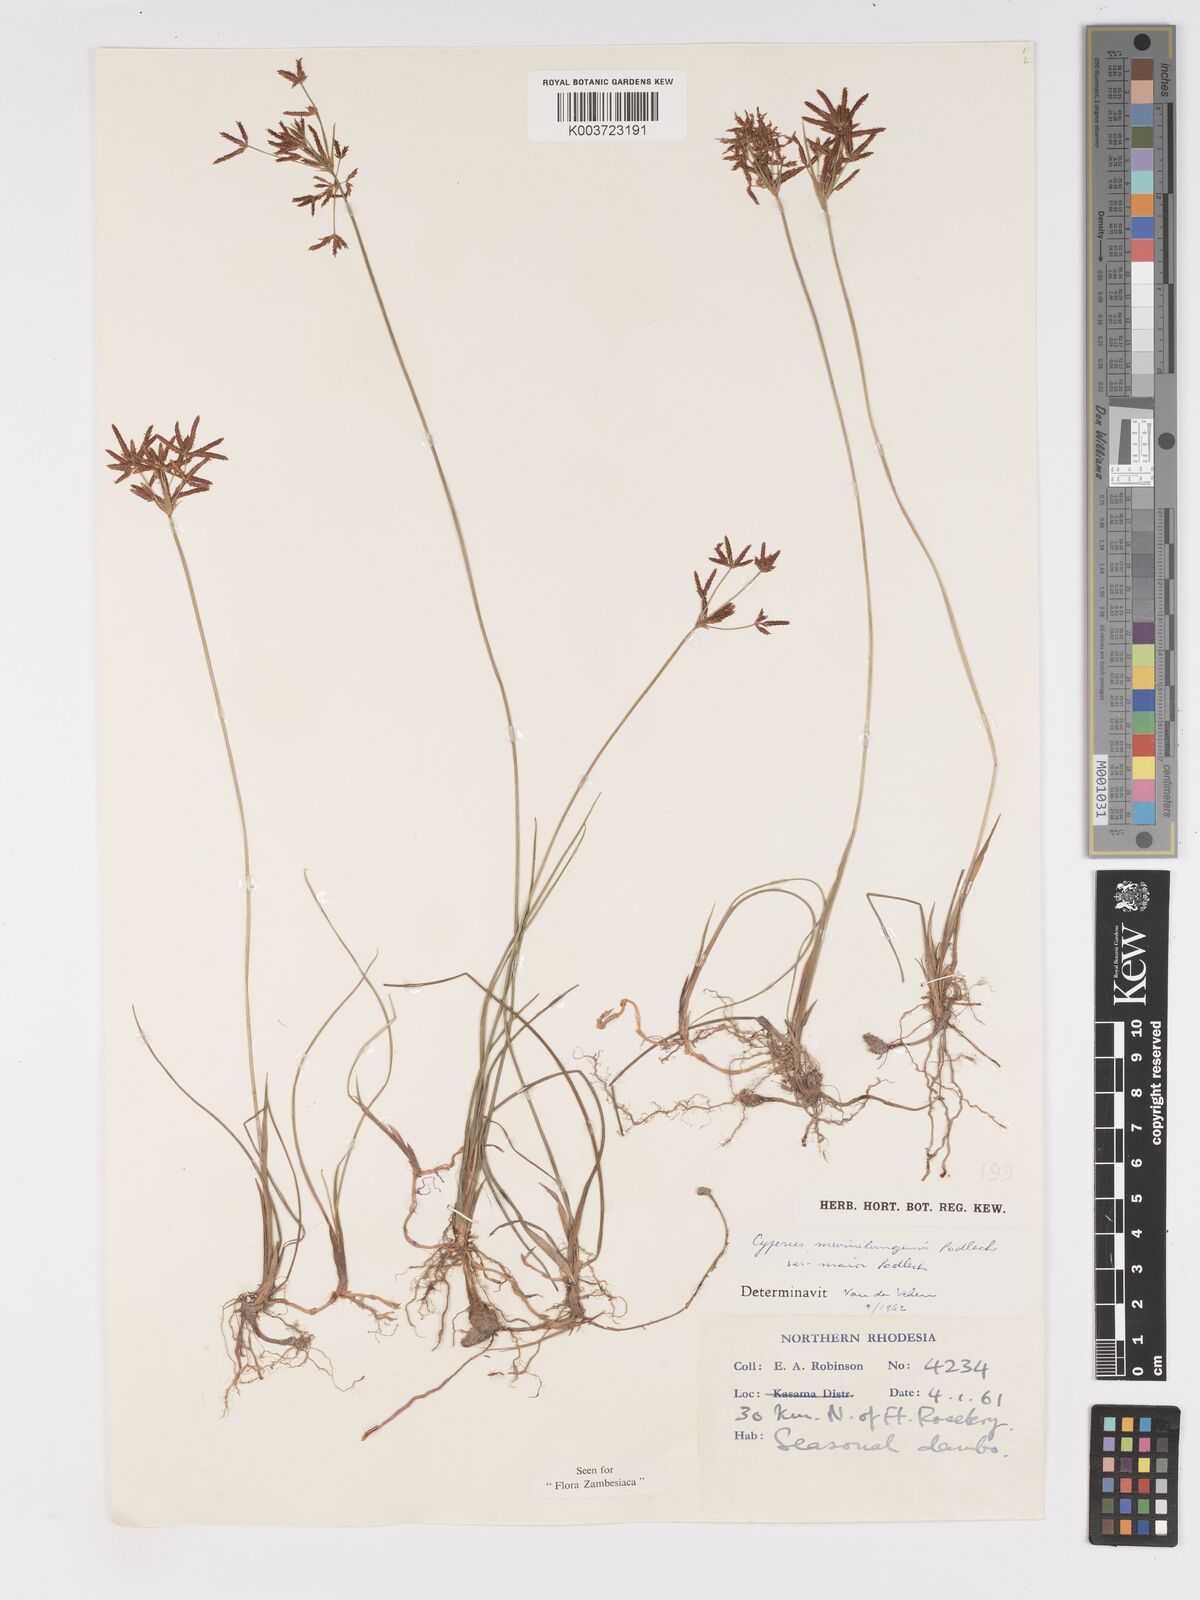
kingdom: Plantae
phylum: Tracheophyta
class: Liliopsida
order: Poales
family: Cyperaceae
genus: Cyperus
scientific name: Cyperus mwinilungensis
